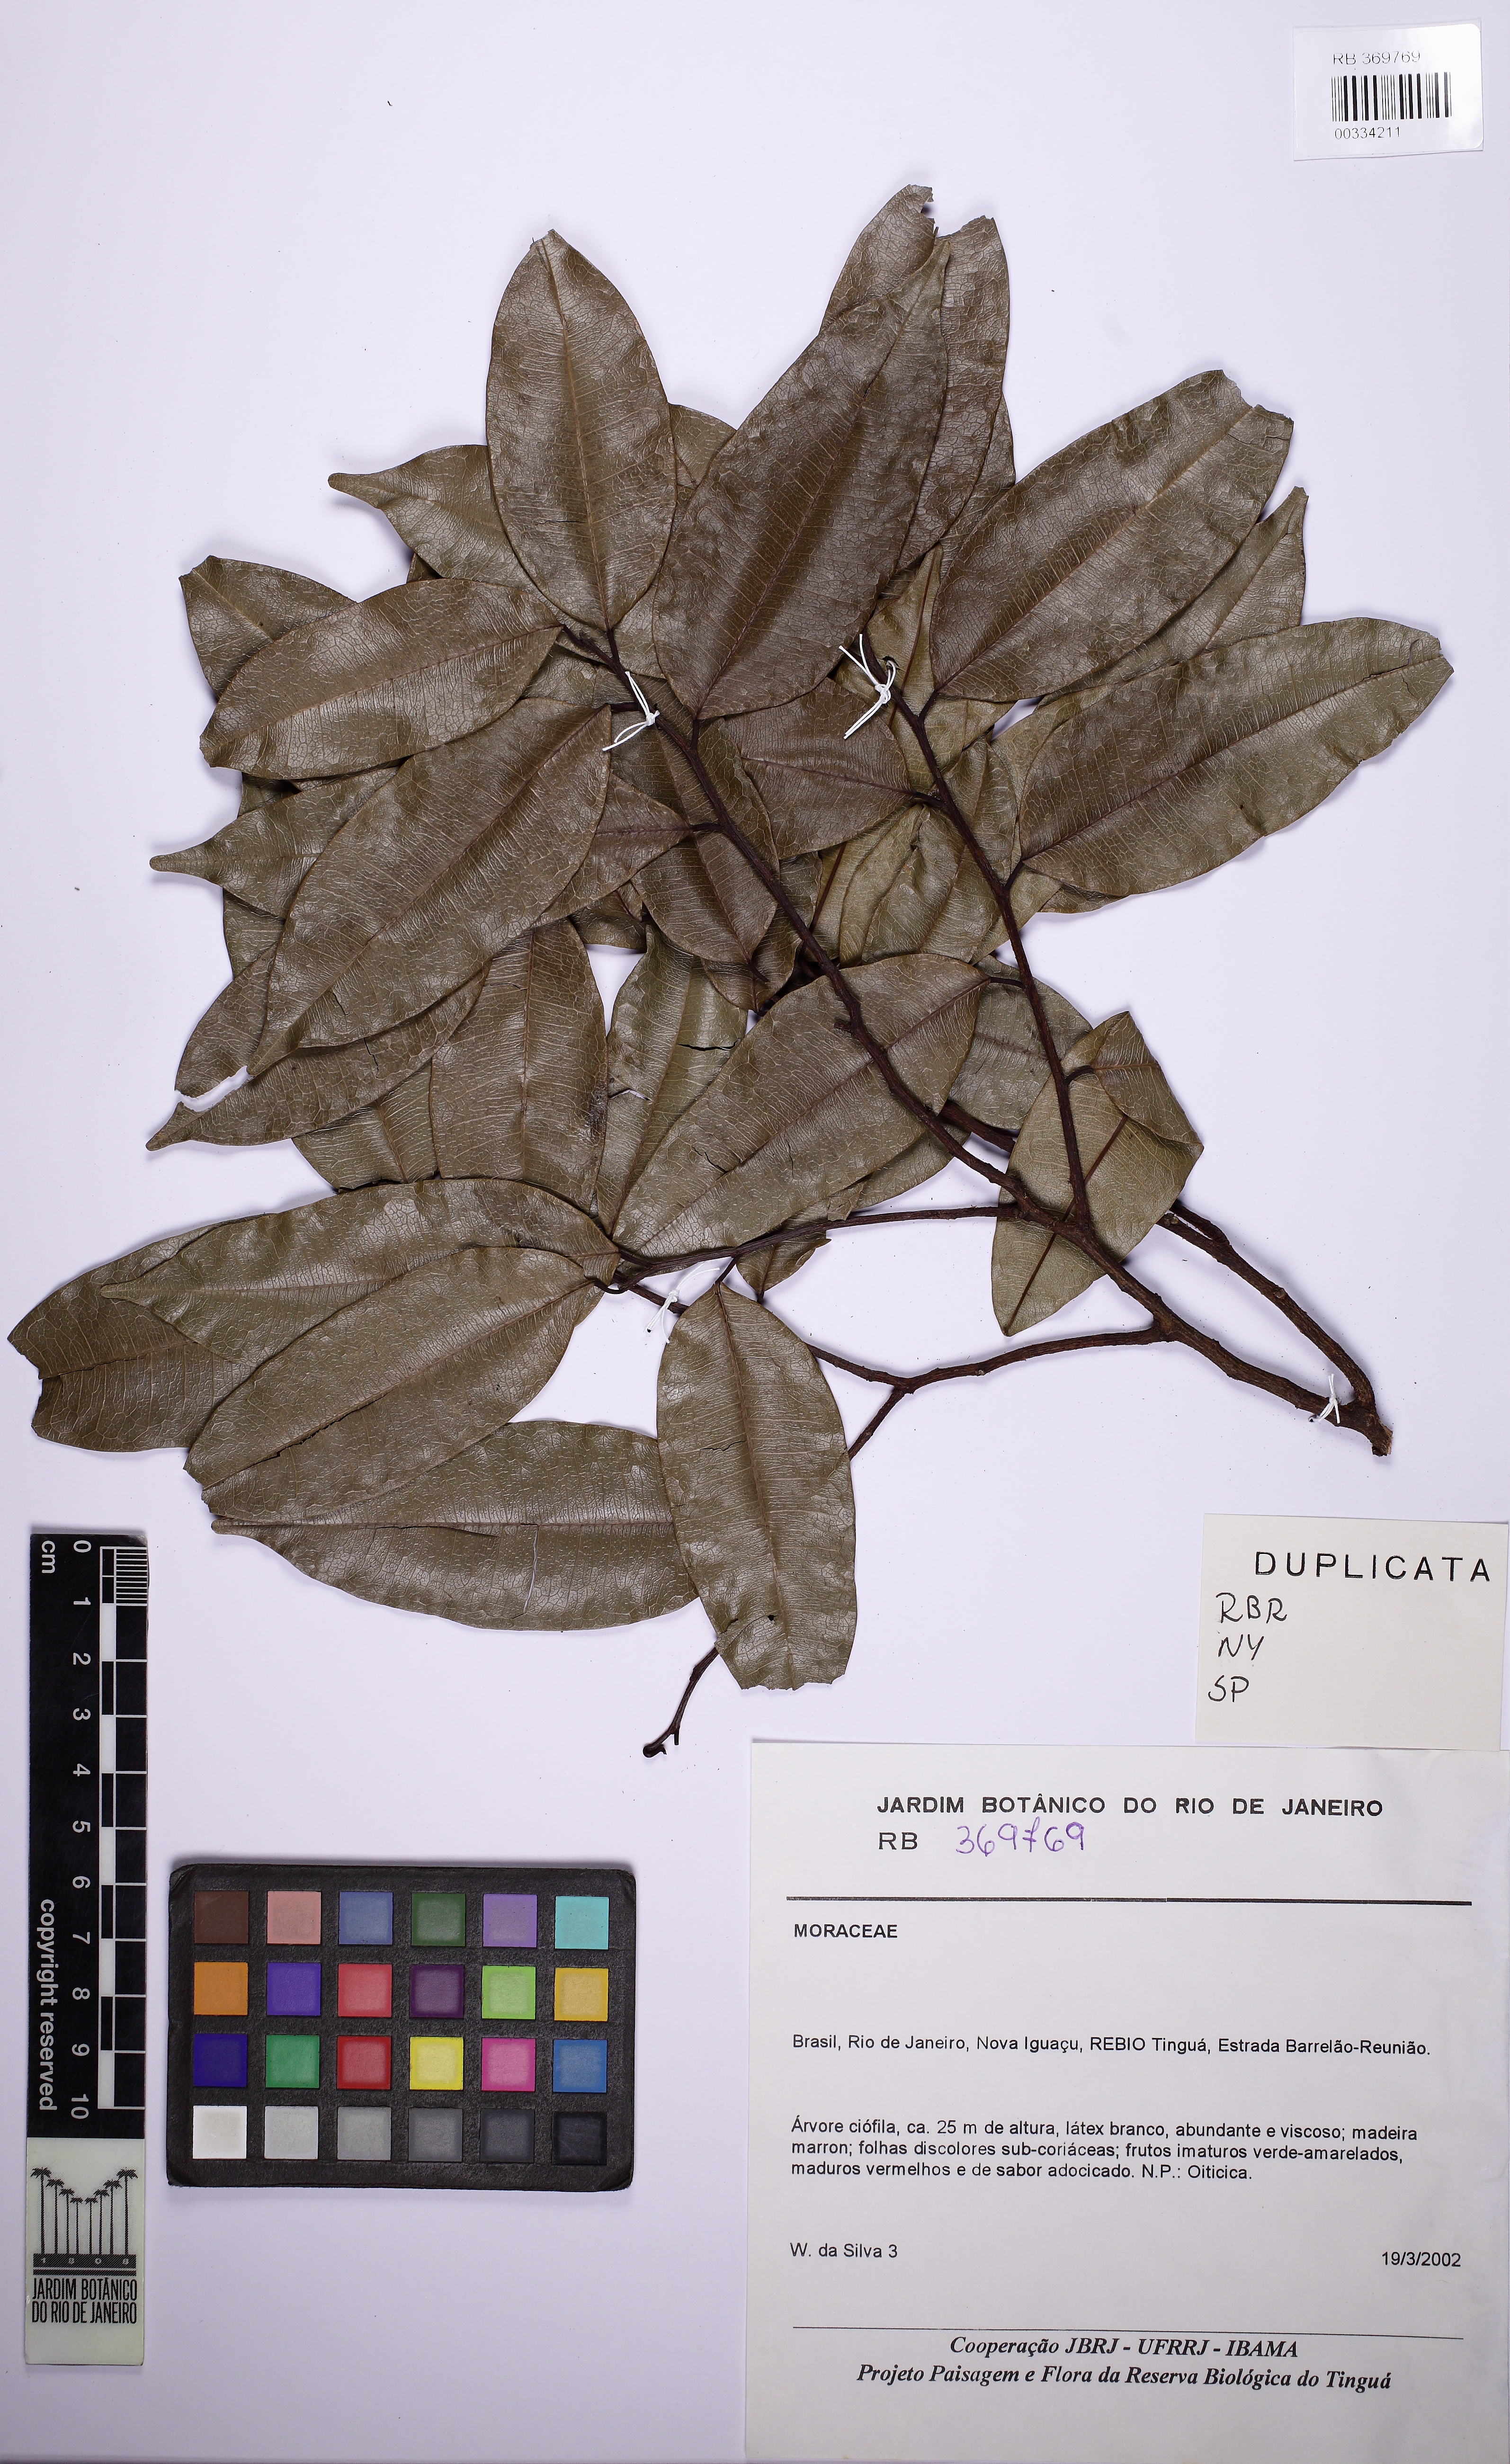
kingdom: Plantae
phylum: Tracheophyta
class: Magnoliopsida
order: Rosales
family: Moraceae
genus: Clarisia
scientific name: Clarisia racemosa
